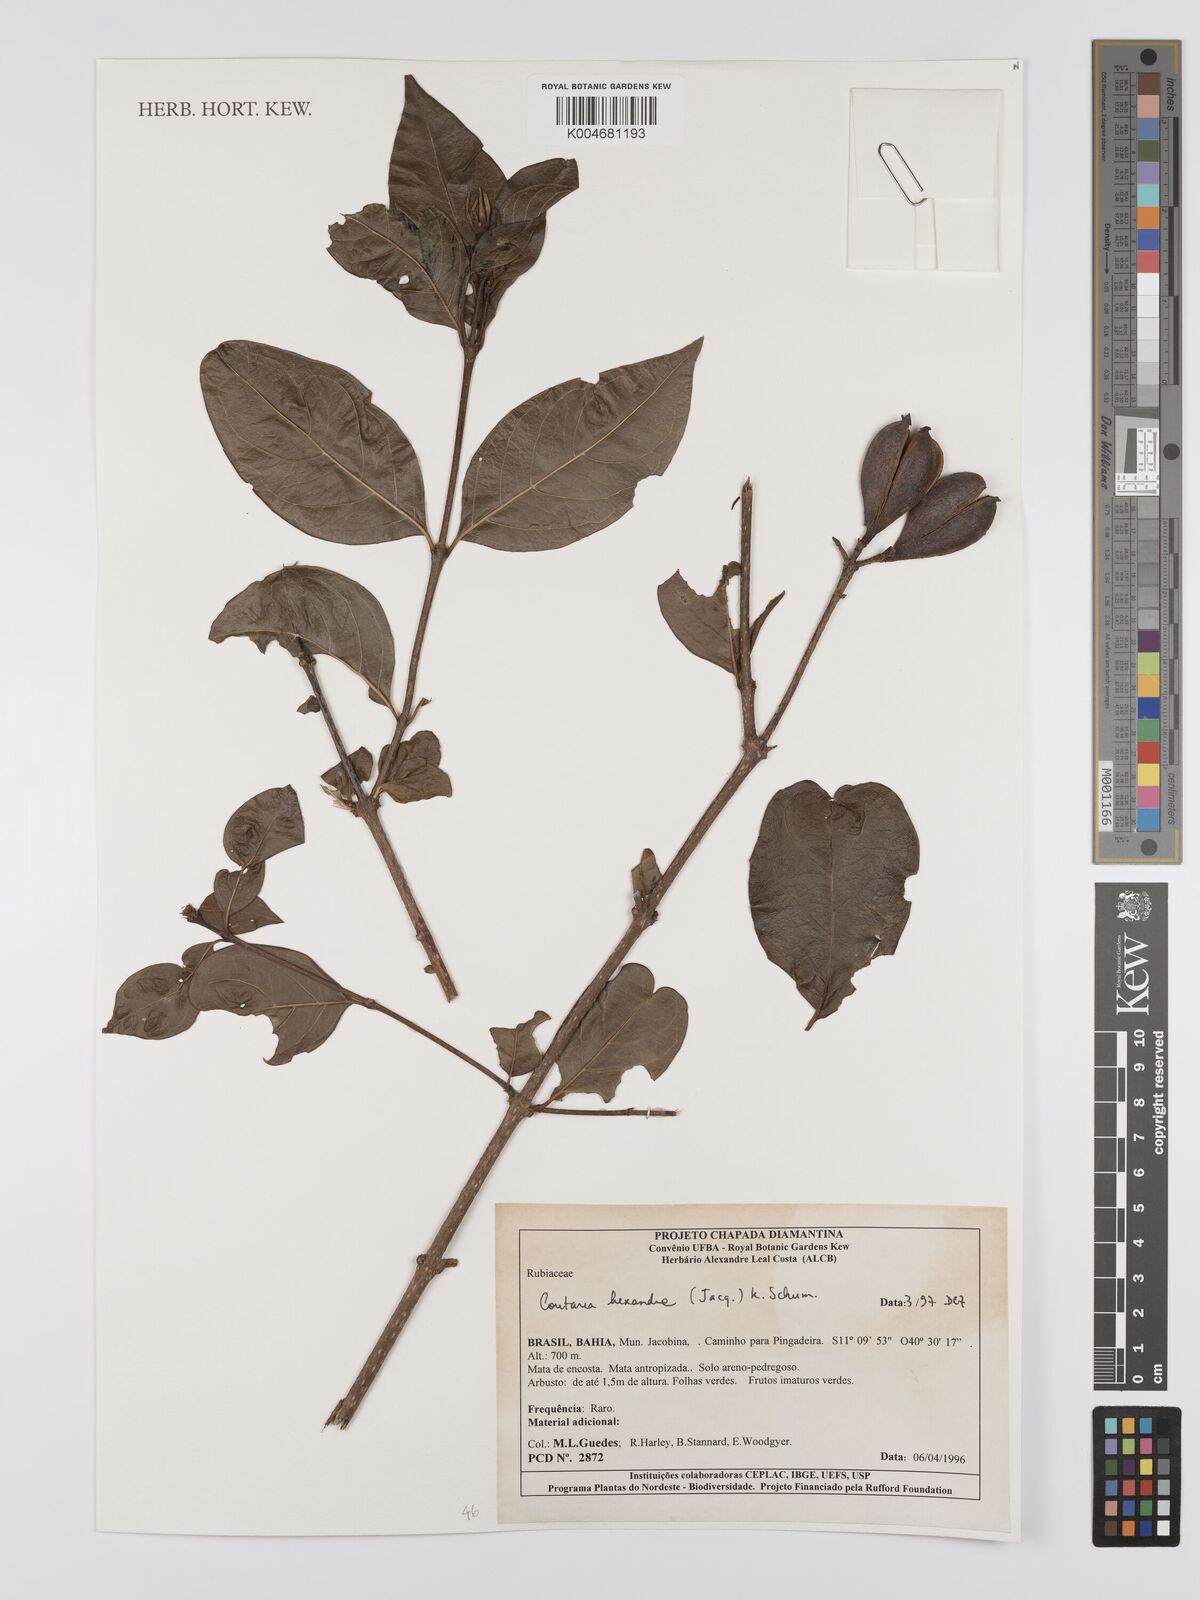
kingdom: Plantae
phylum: Tracheophyta
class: Magnoliopsida
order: Gentianales
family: Rubiaceae
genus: Coutarea
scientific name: Coutarea hexandra
